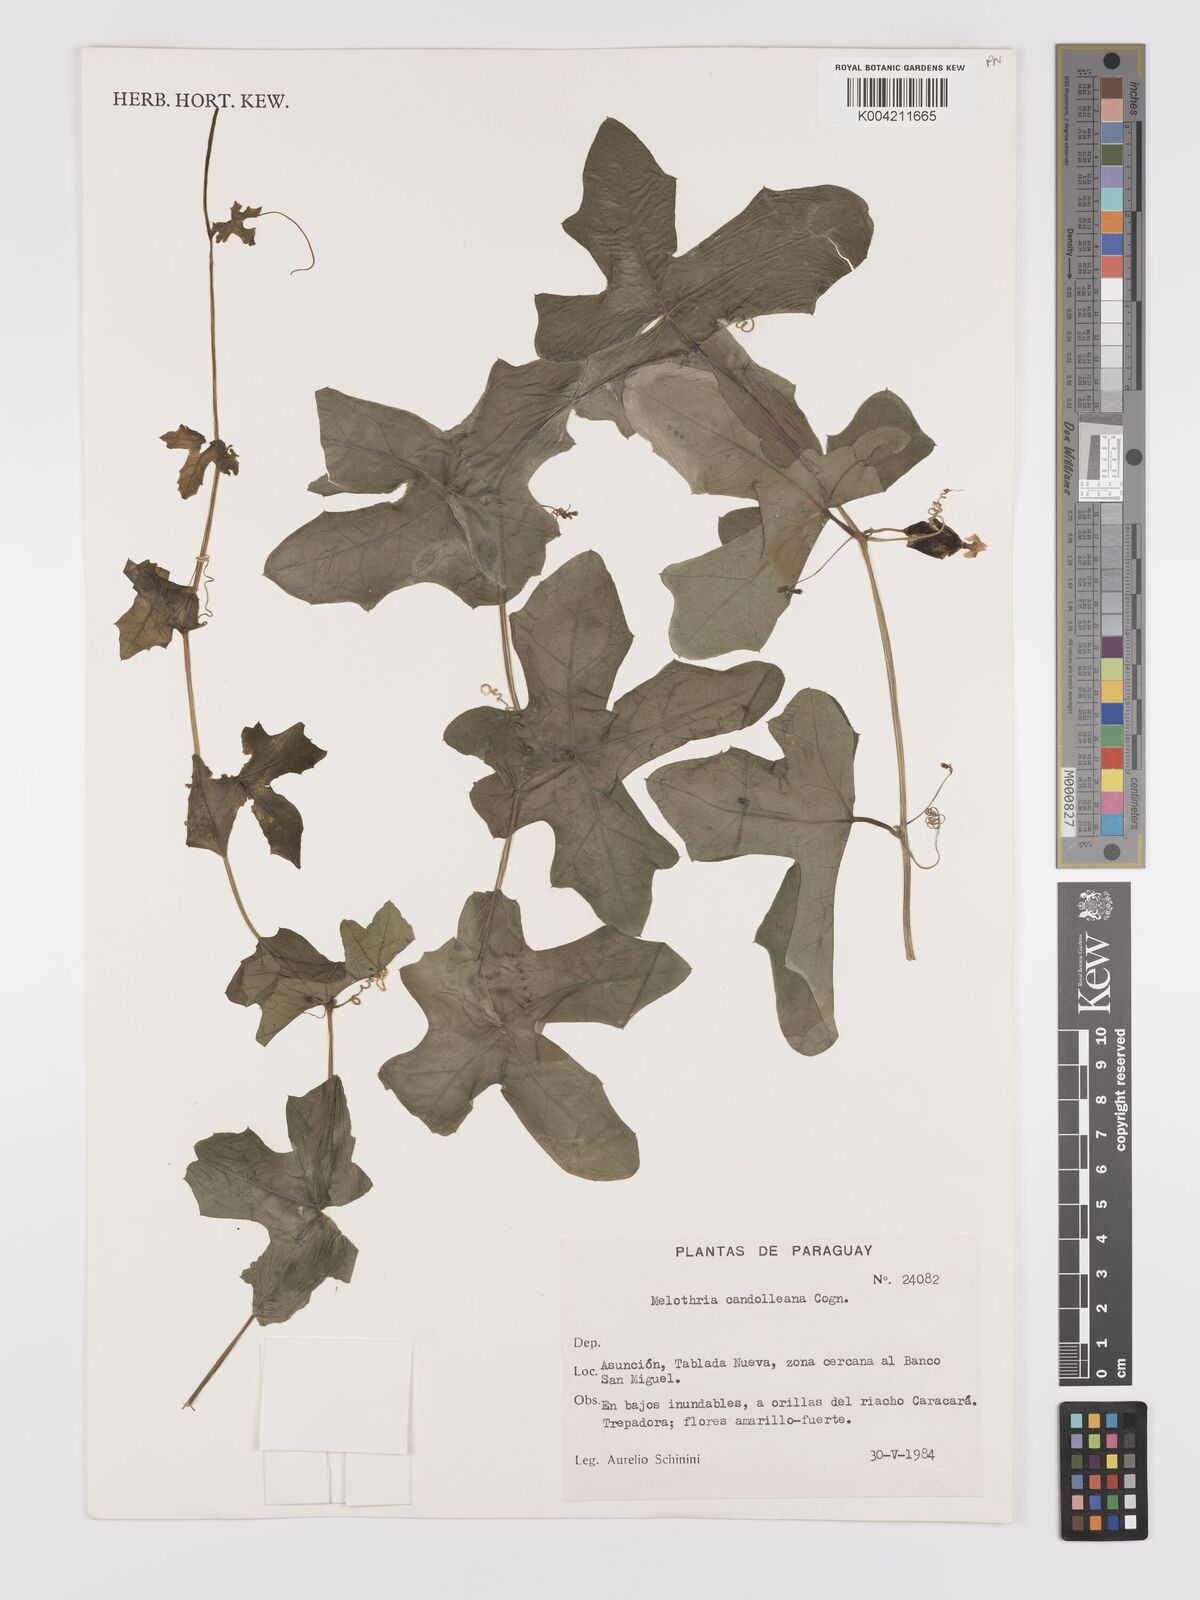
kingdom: Plantae
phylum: Tracheophyta
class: Magnoliopsida
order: Cucurbitales
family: Cucurbitaceae
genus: Melothria
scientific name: Melothria candolleana
